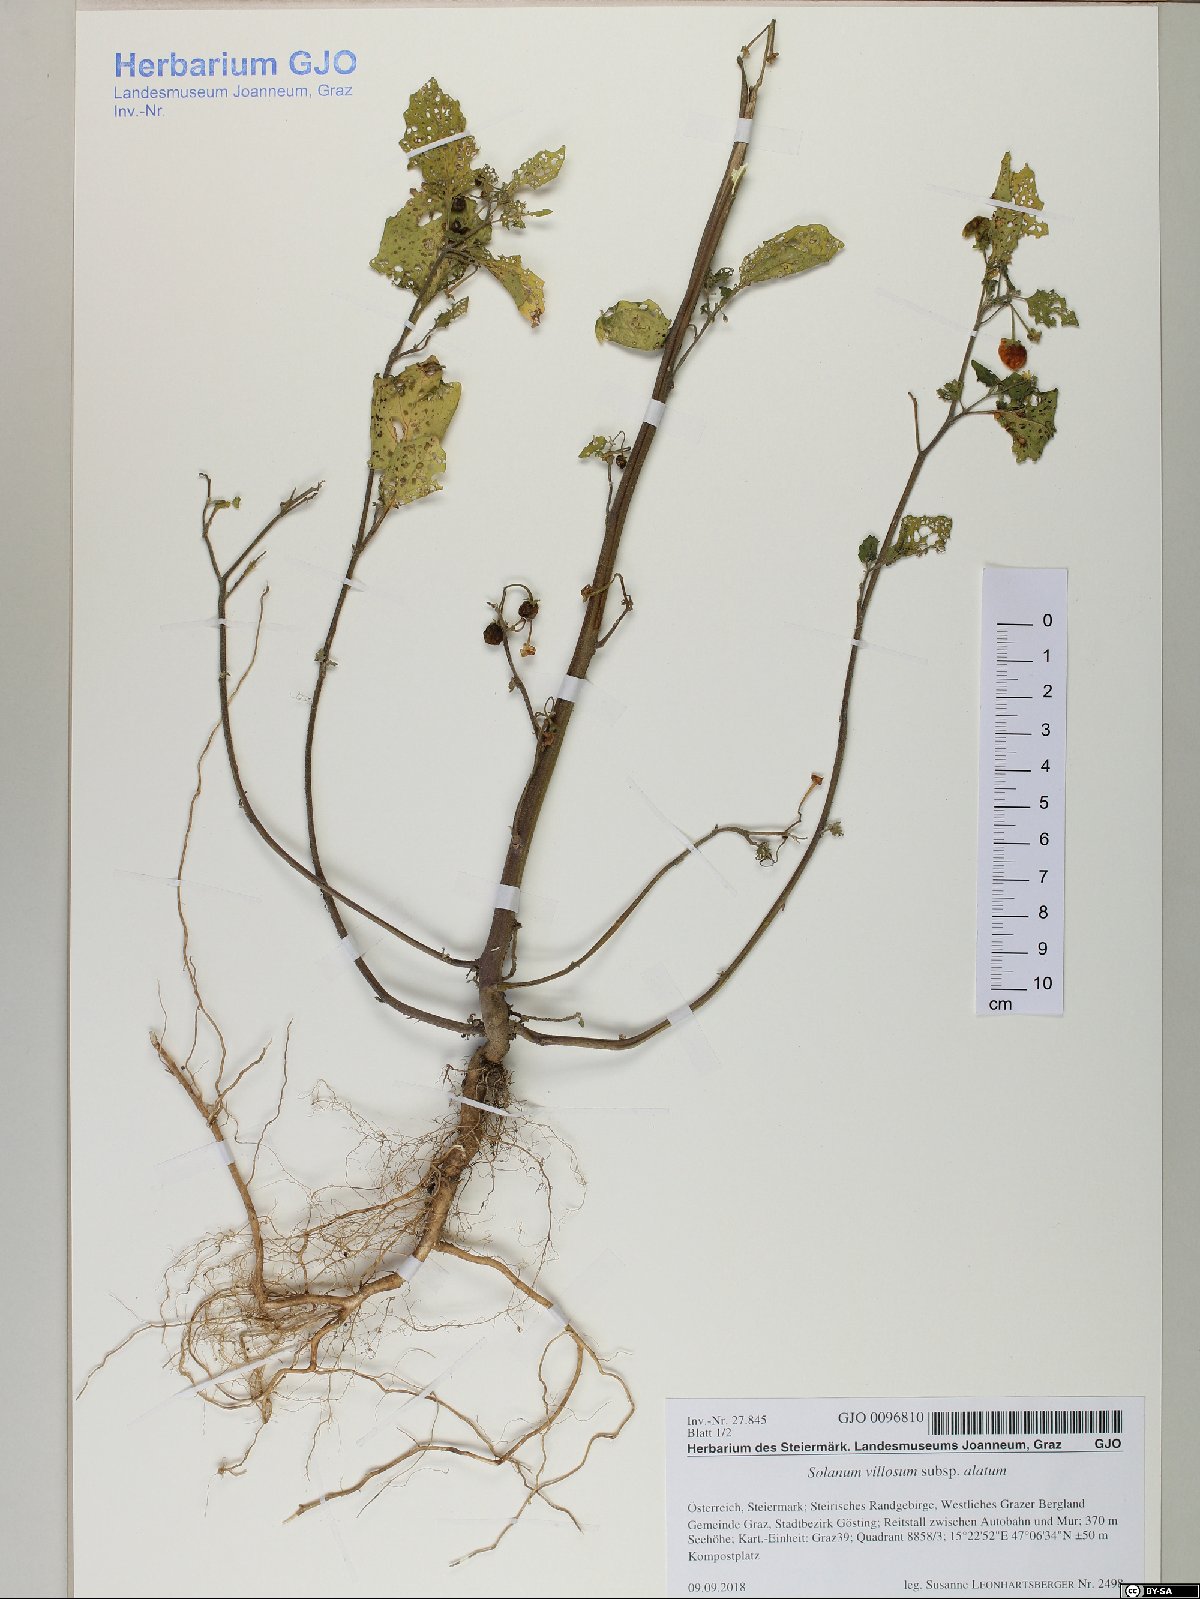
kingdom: Plantae
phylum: Tracheophyta
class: Magnoliopsida
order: Solanales
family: Solanaceae
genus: Solanum
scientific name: Solanum alatum
